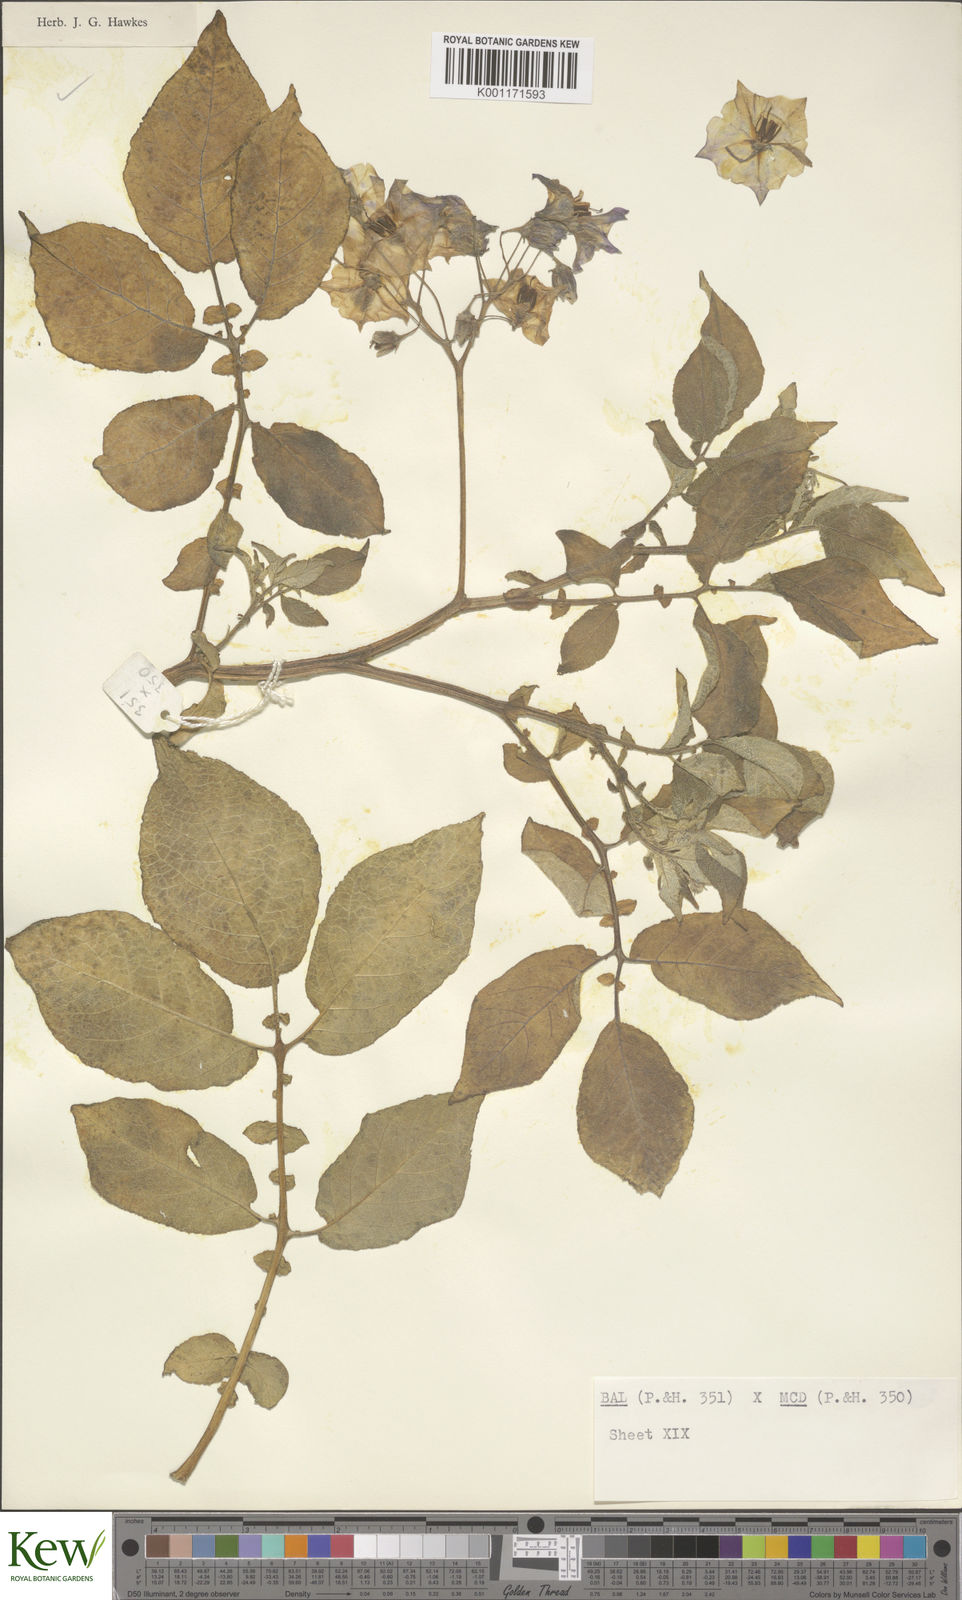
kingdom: Plantae
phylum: Tracheophyta
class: Magnoliopsida
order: Solanales
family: Solanaceae
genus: Solanum
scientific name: Solanum vernei
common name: Purple potato
